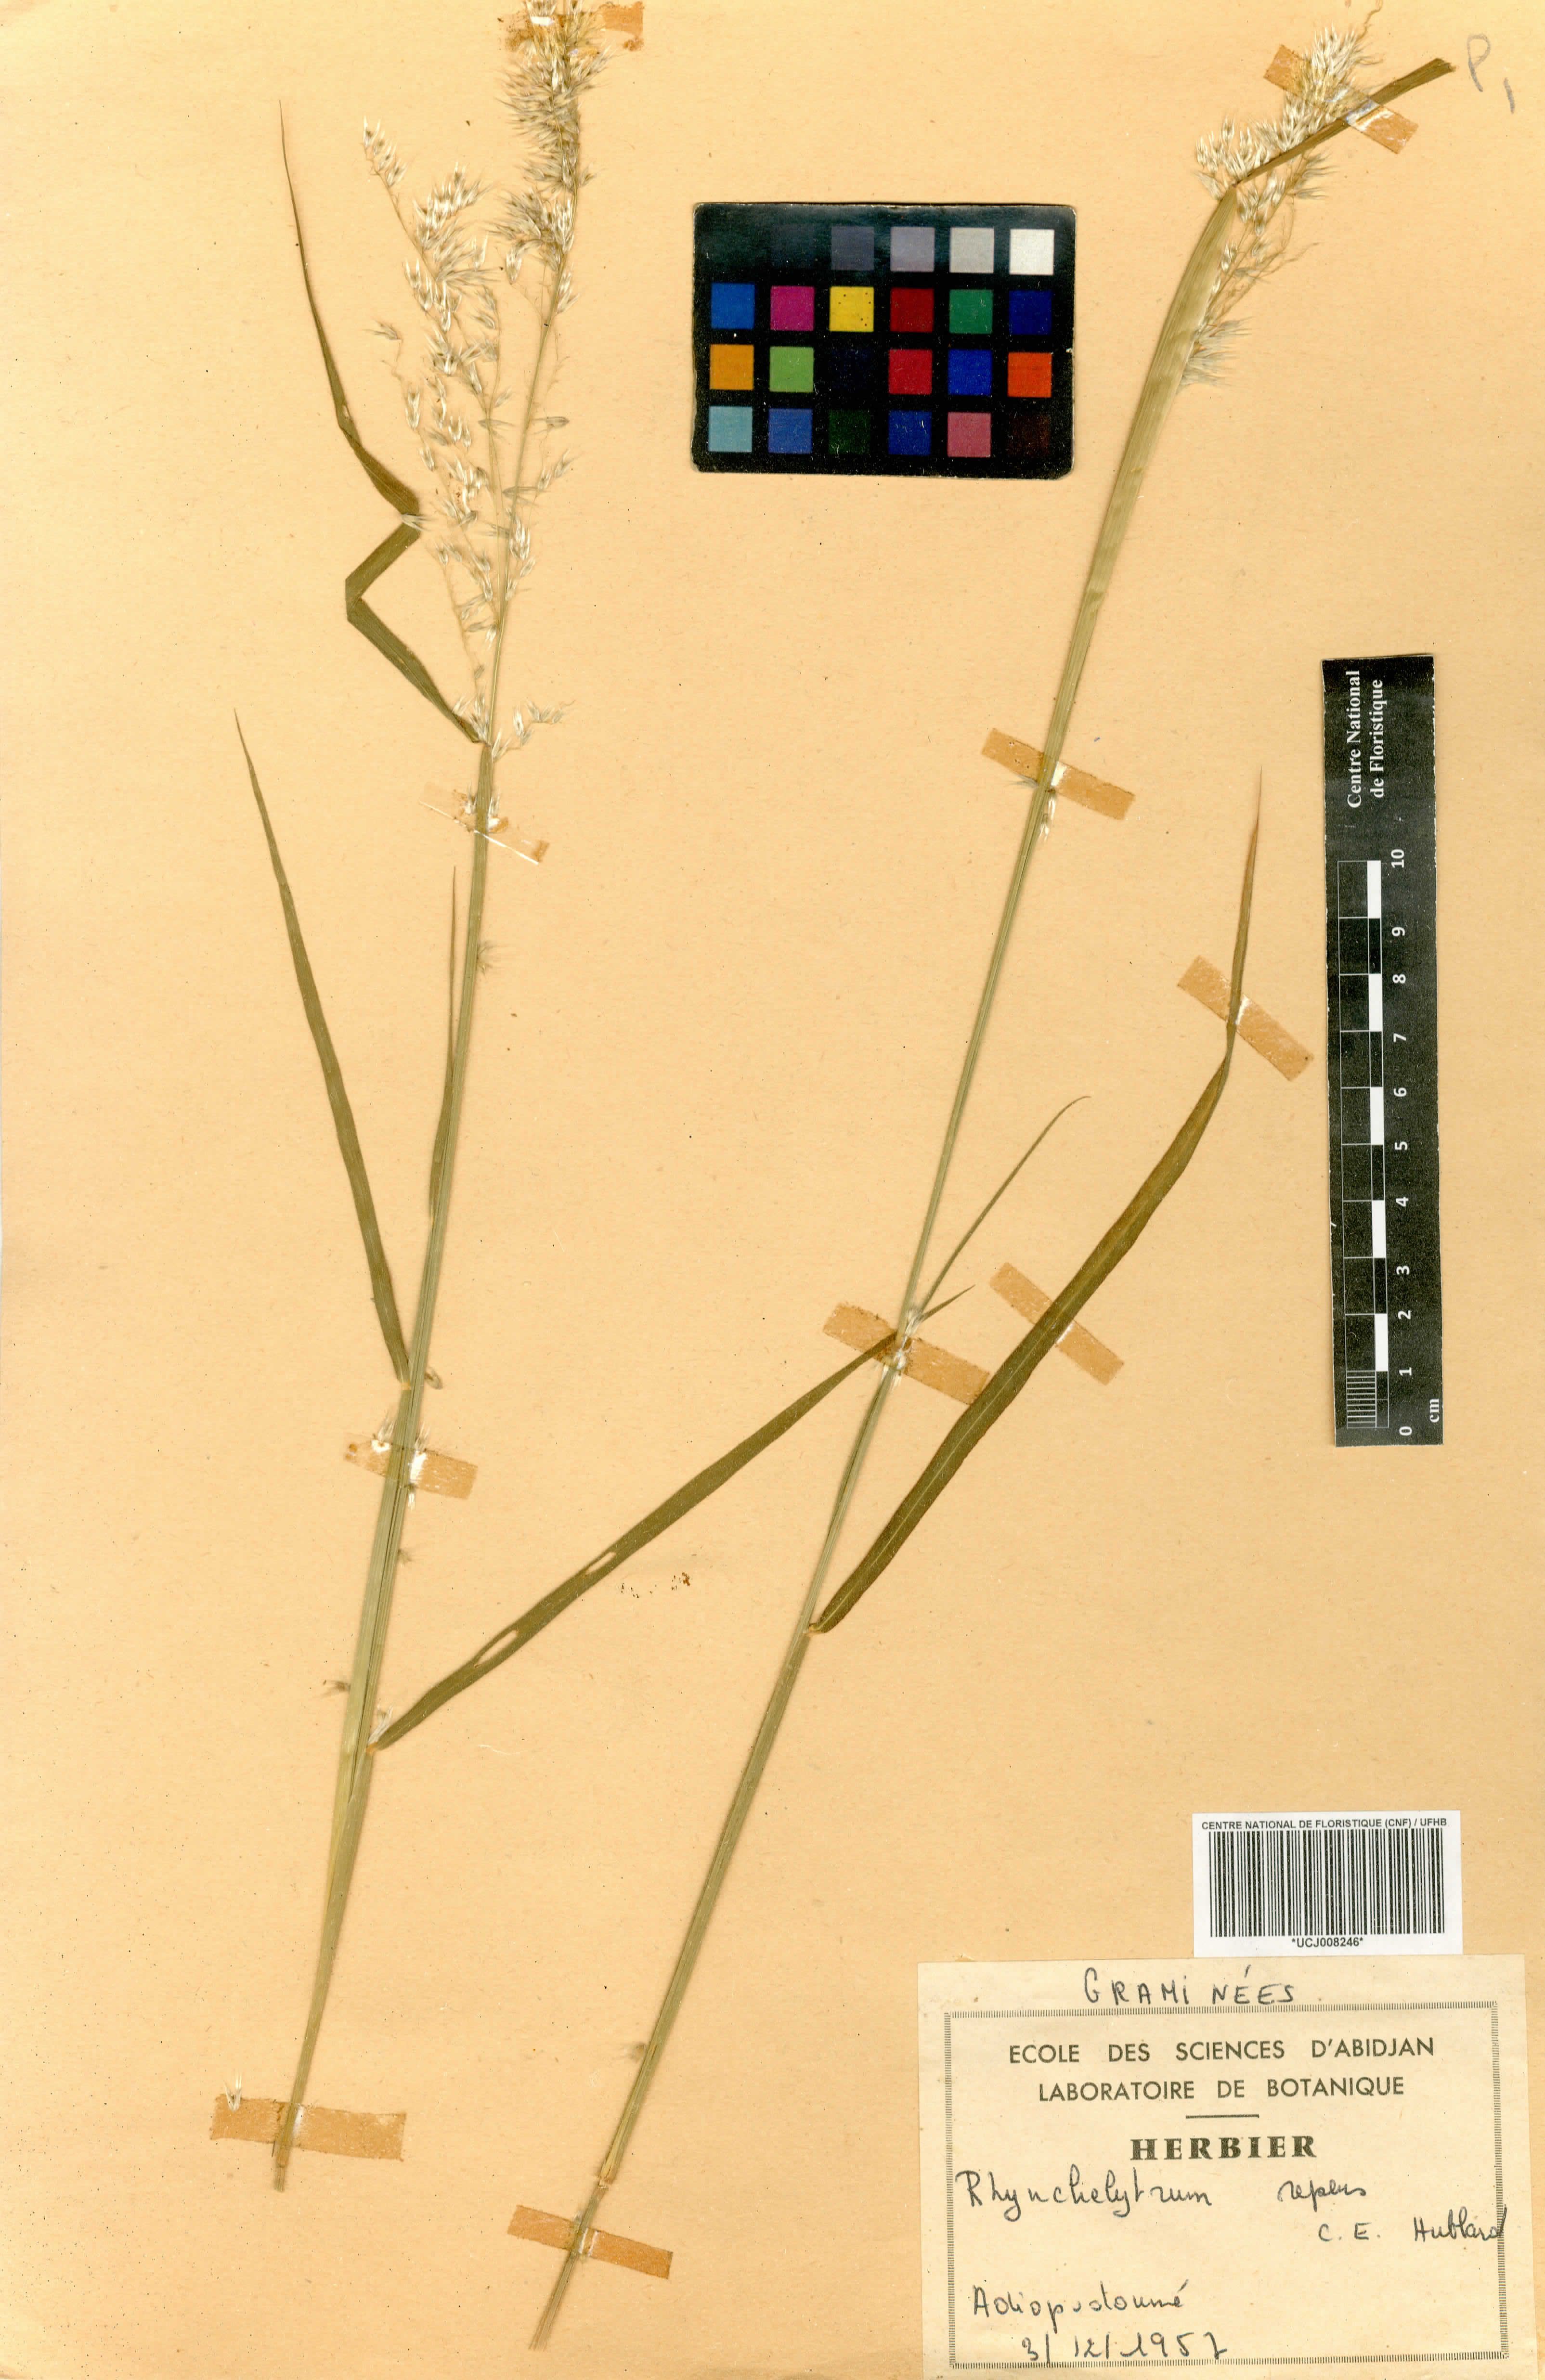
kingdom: Plantae
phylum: Tracheophyta
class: Liliopsida
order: Poales
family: Poaceae
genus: Melinis
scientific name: Melinis repens
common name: Rose natal grass
